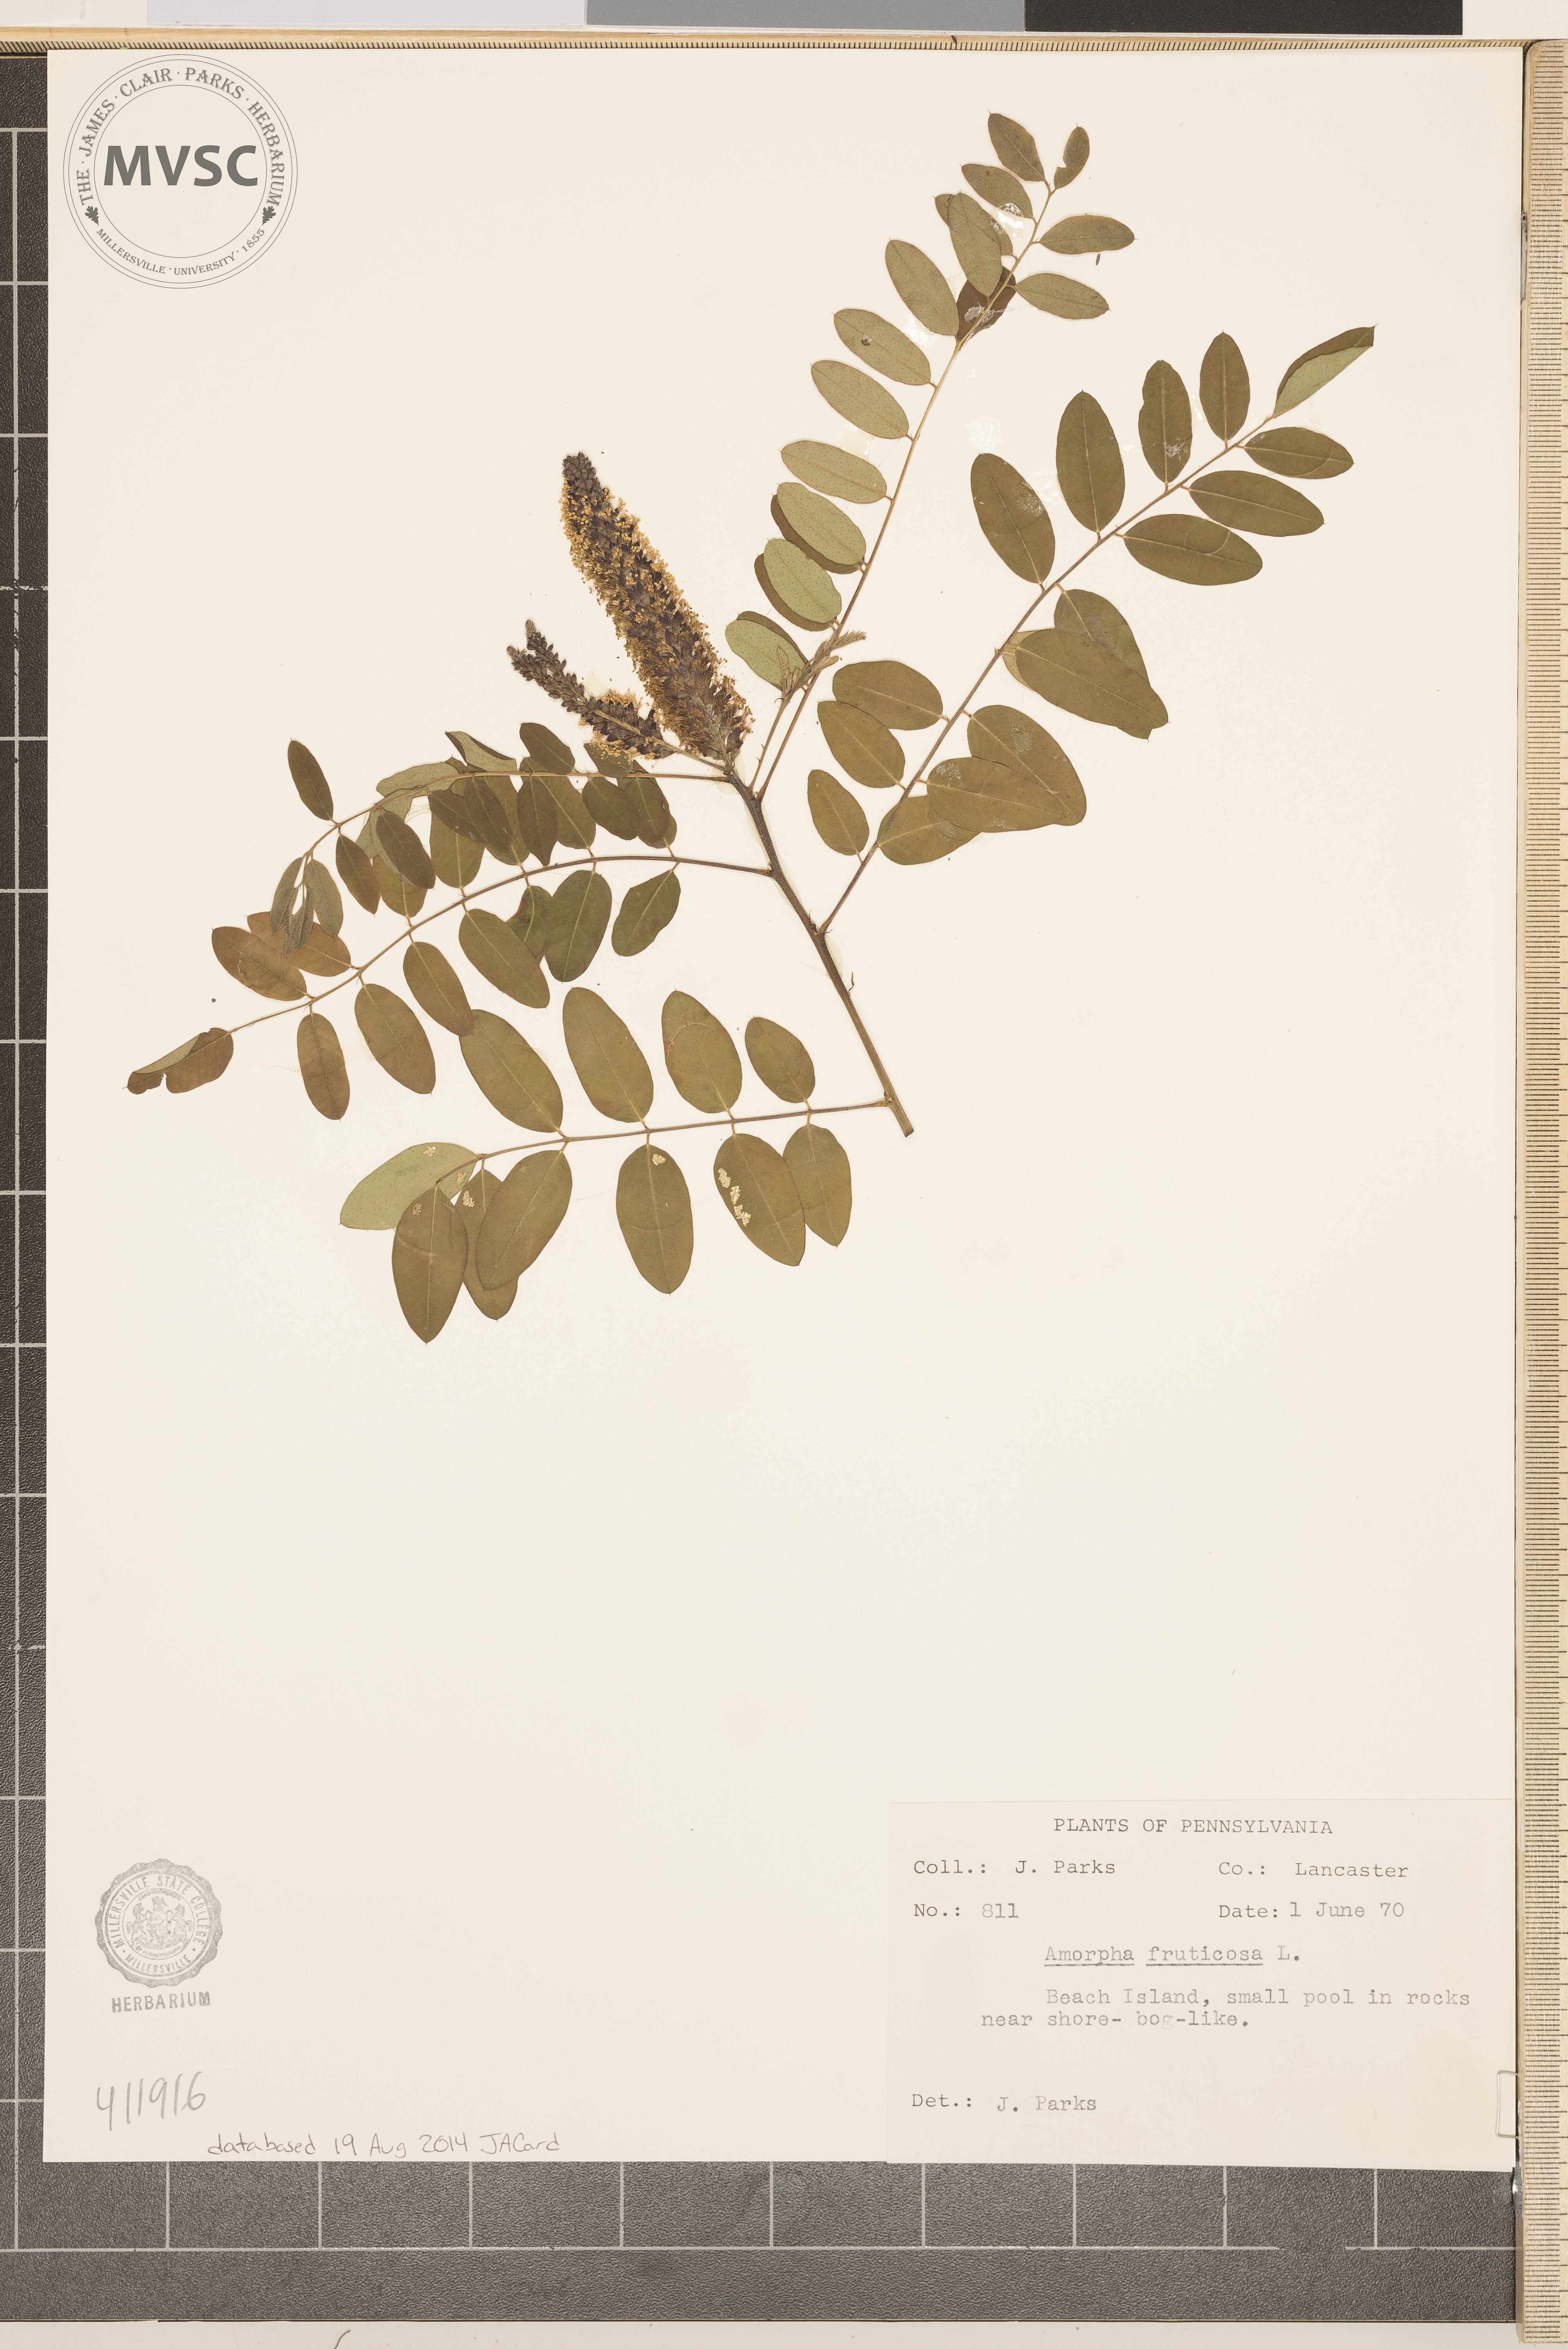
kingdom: Plantae
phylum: Tracheophyta
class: Magnoliopsida
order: Fabales
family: Fabaceae
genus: Amorpha
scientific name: Amorpha fruticosa
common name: False indigo
